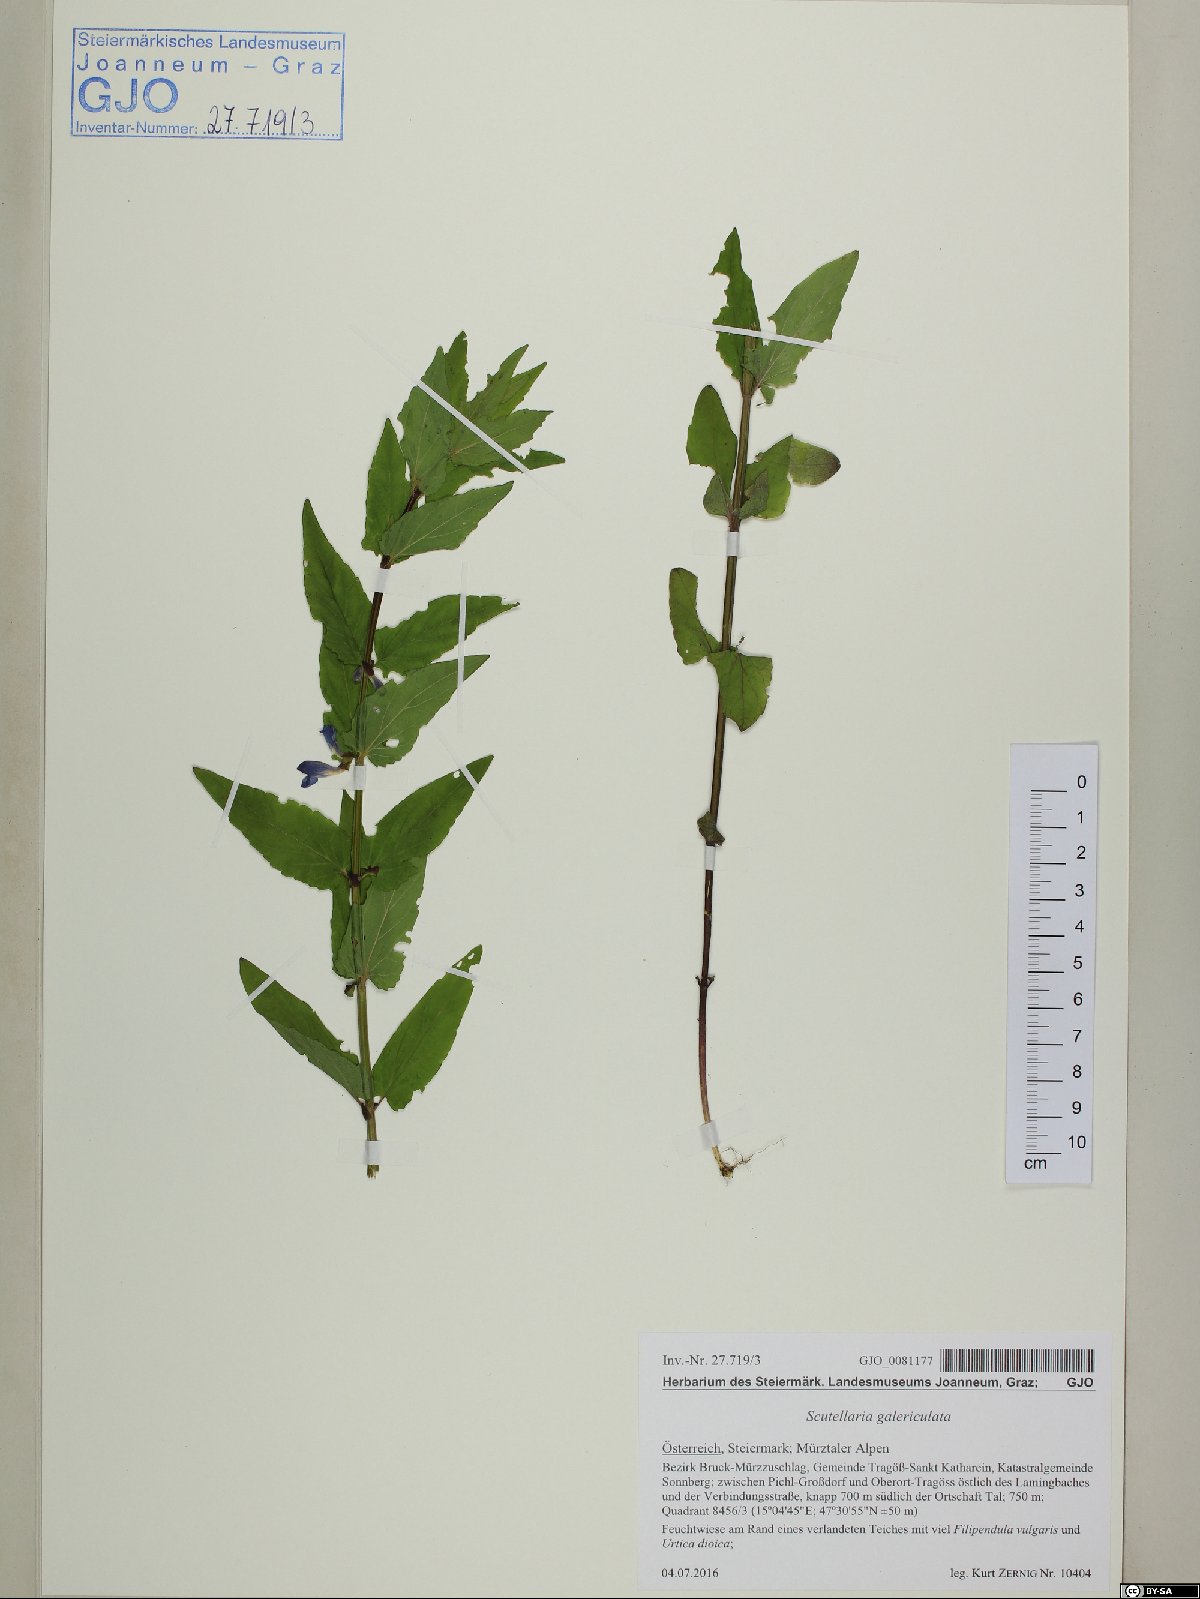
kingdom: Plantae
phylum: Tracheophyta
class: Magnoliopsida
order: Lamiales
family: Lamiaceae
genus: Scutellaria
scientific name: Scutellaria galericulata
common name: Skullcap
